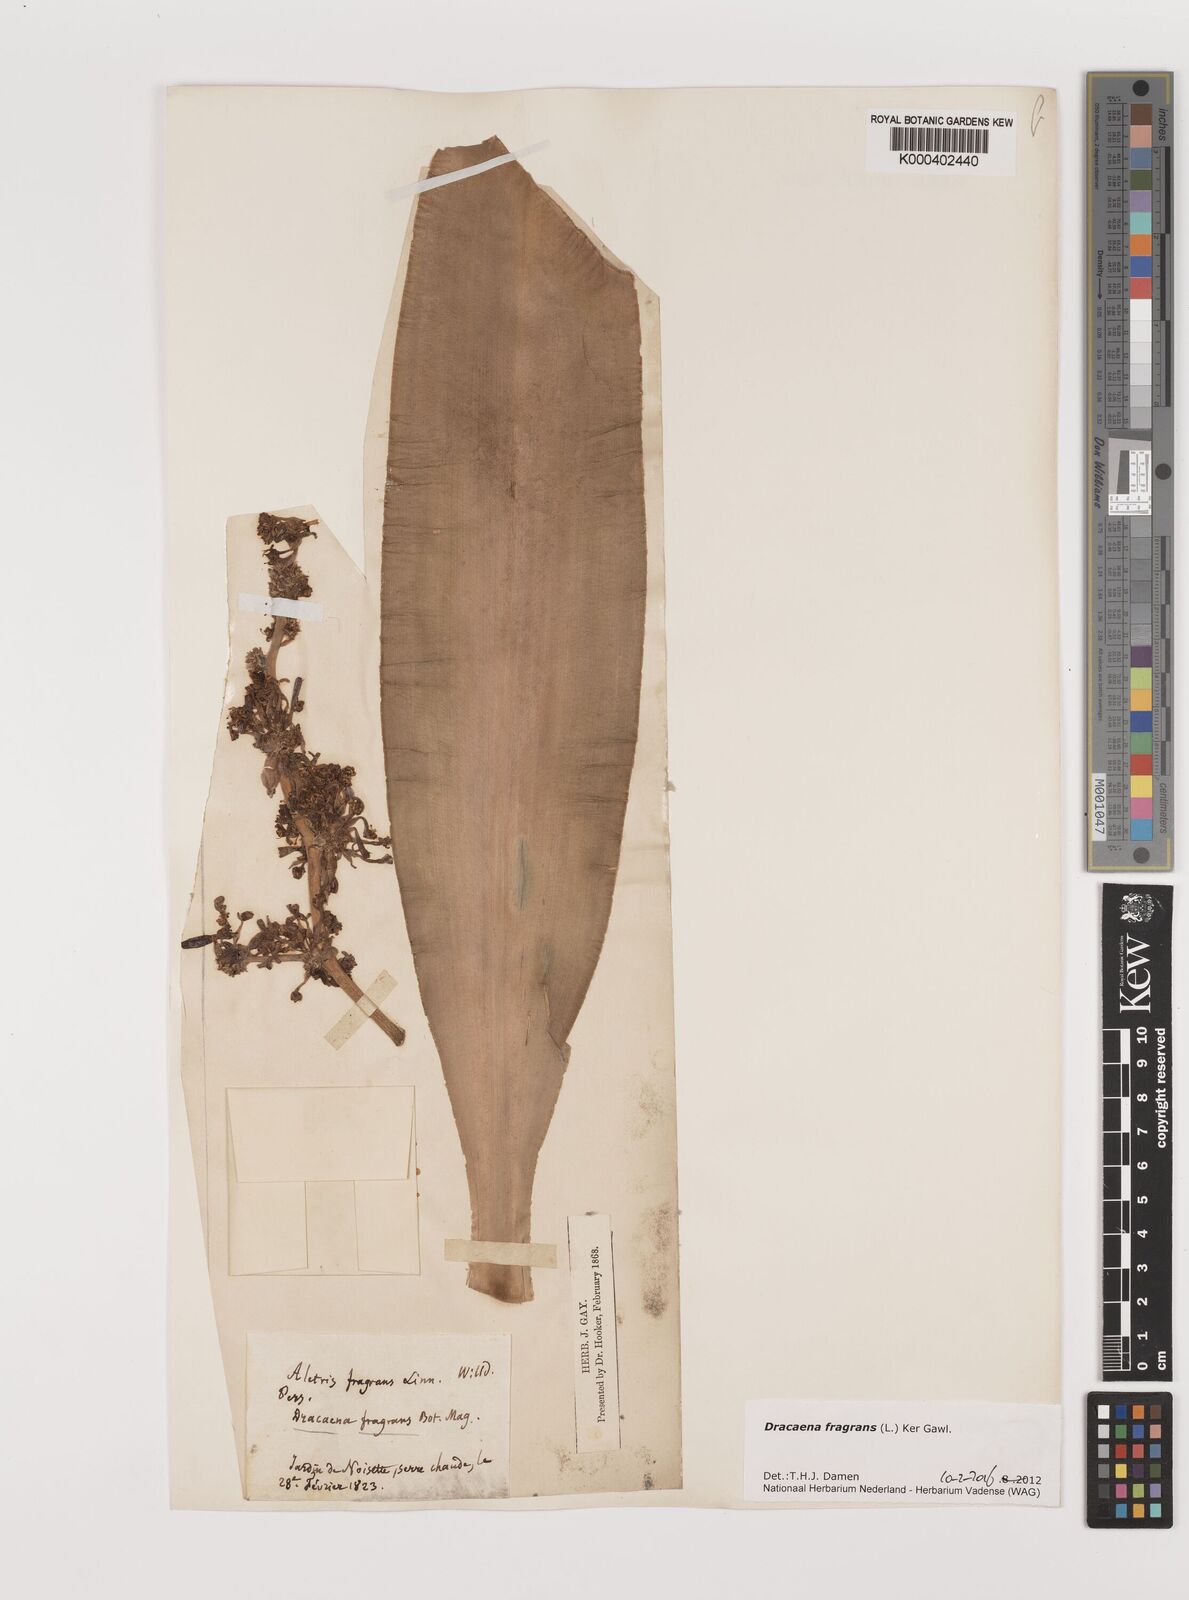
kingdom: Plantae
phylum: Tracheophyta
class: Liliopsida
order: Asparagales
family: Asparagaceae
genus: Dracaena
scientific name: Dracaena fragrans
